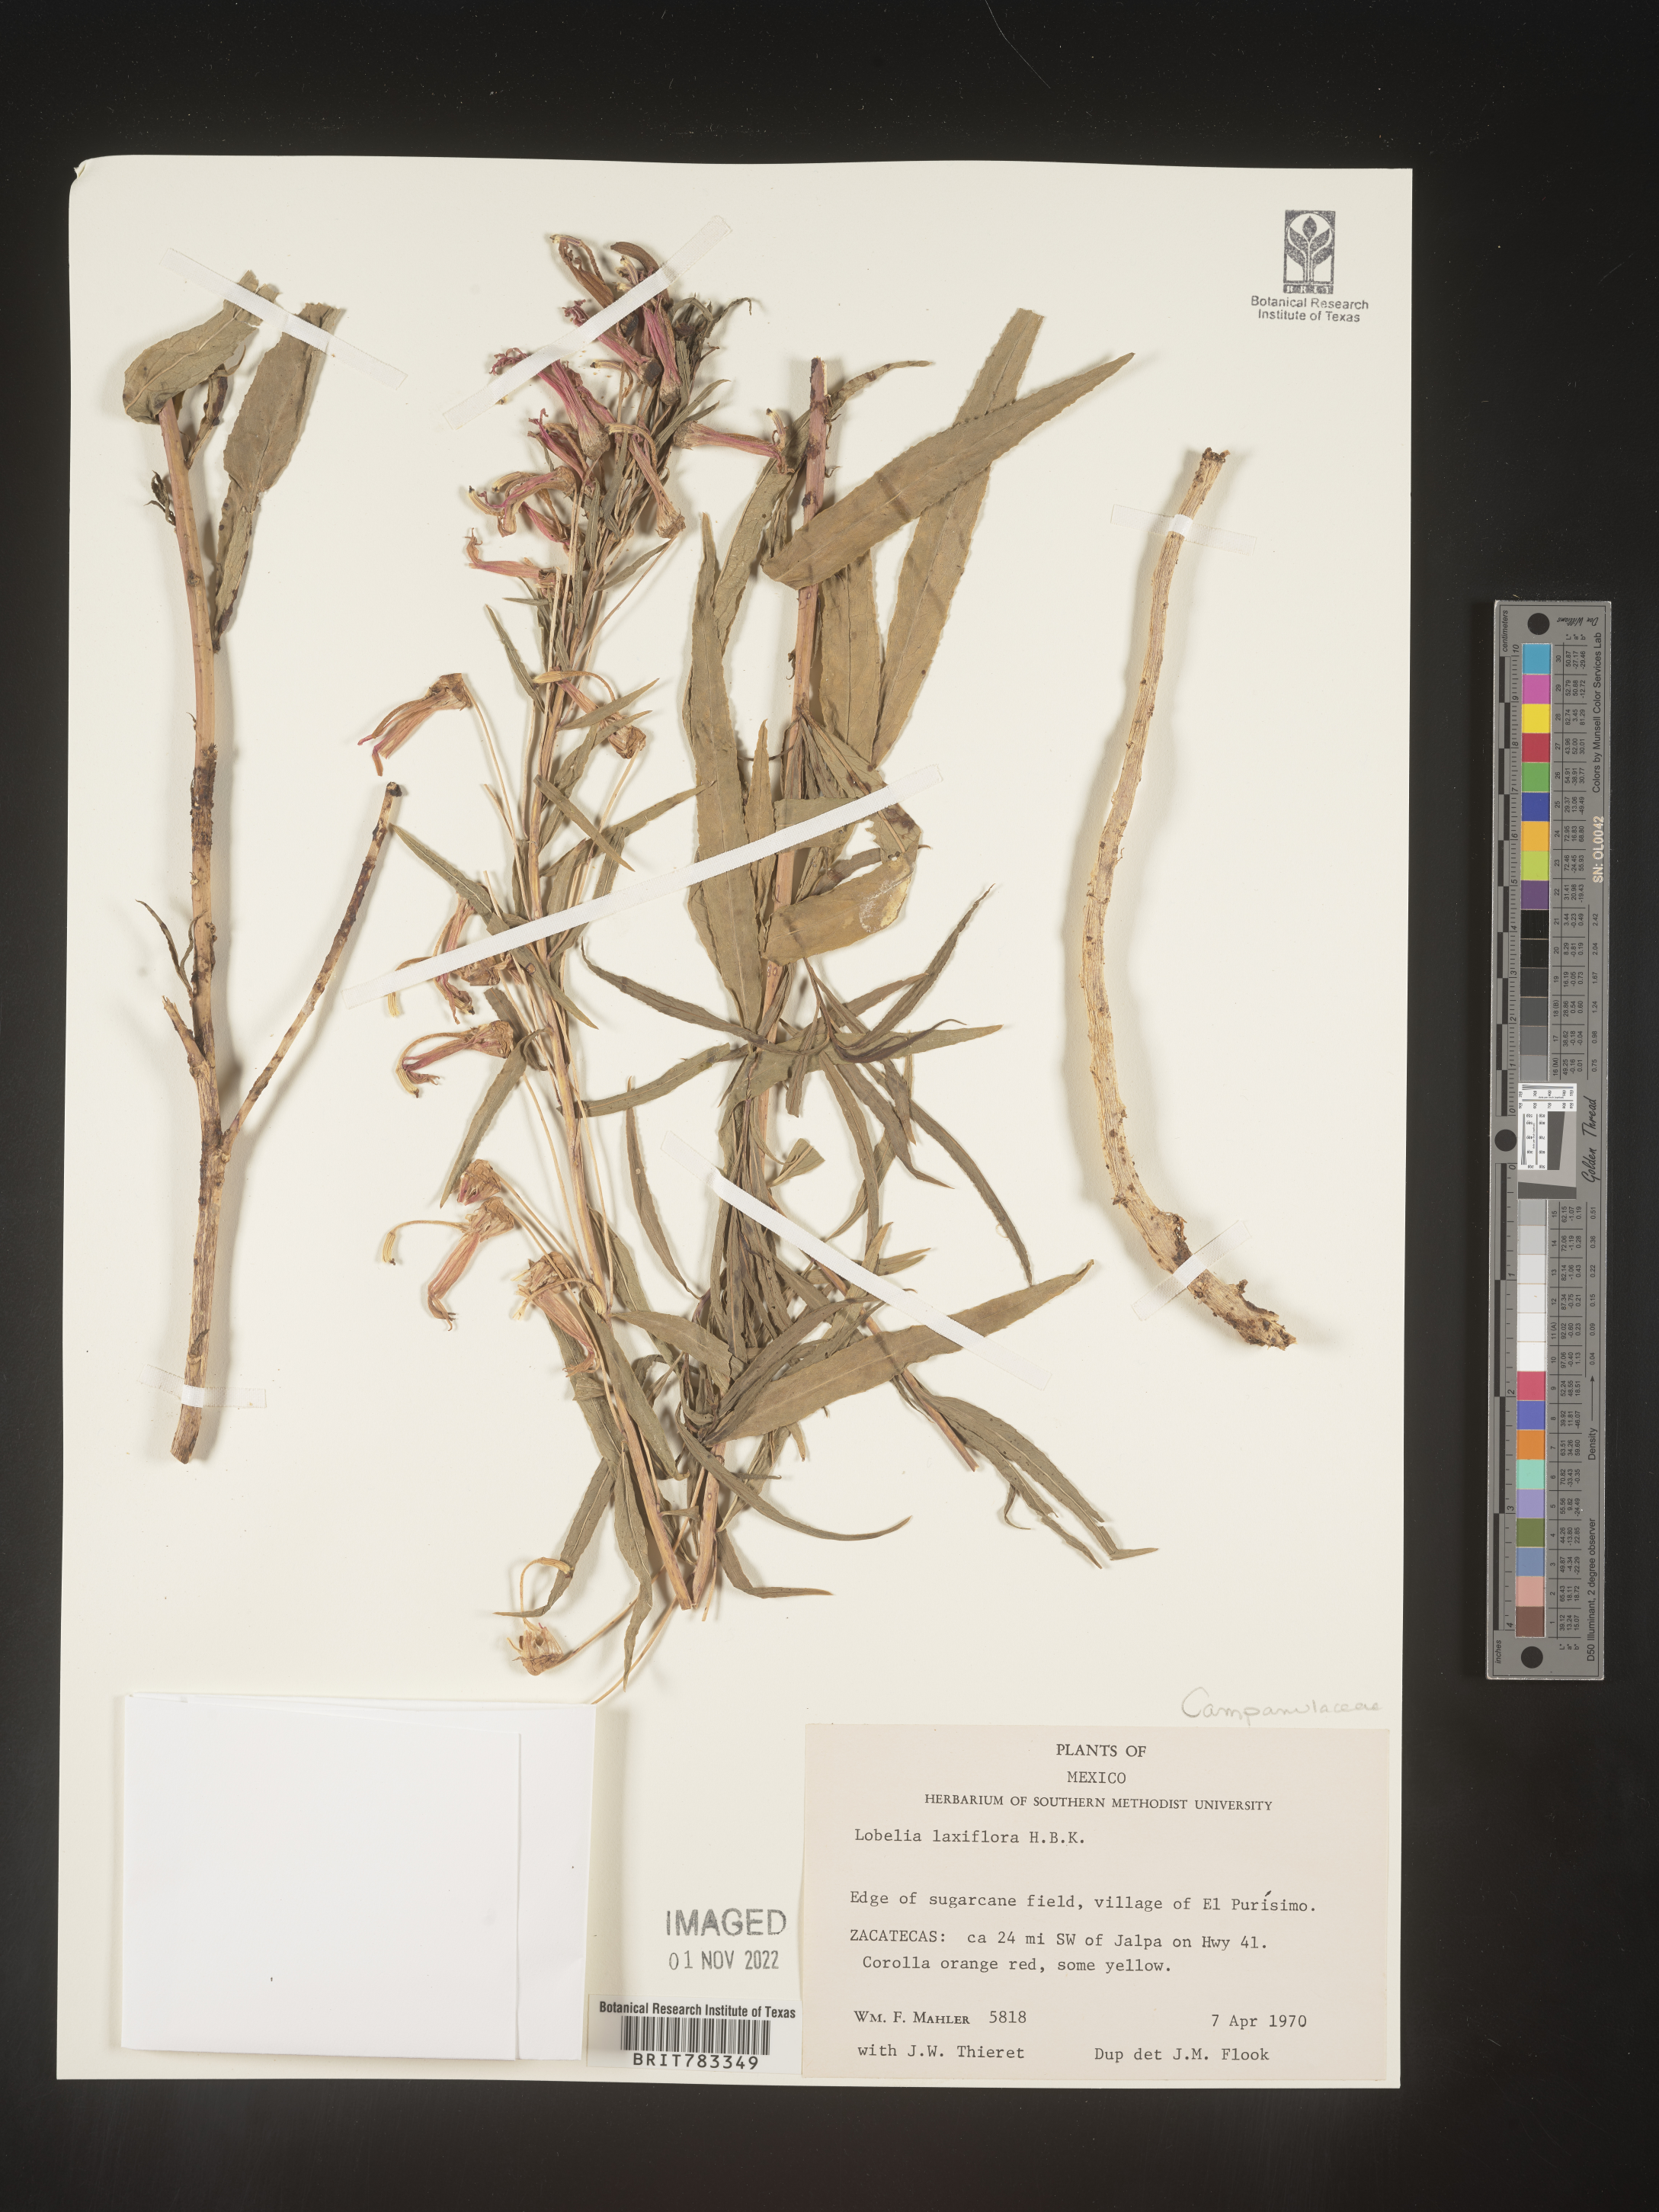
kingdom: Plantae
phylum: Tracheophyta
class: Magnoliopsida
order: Asterales
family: Campanulaceae
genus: Lobelia
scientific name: Lobelia
